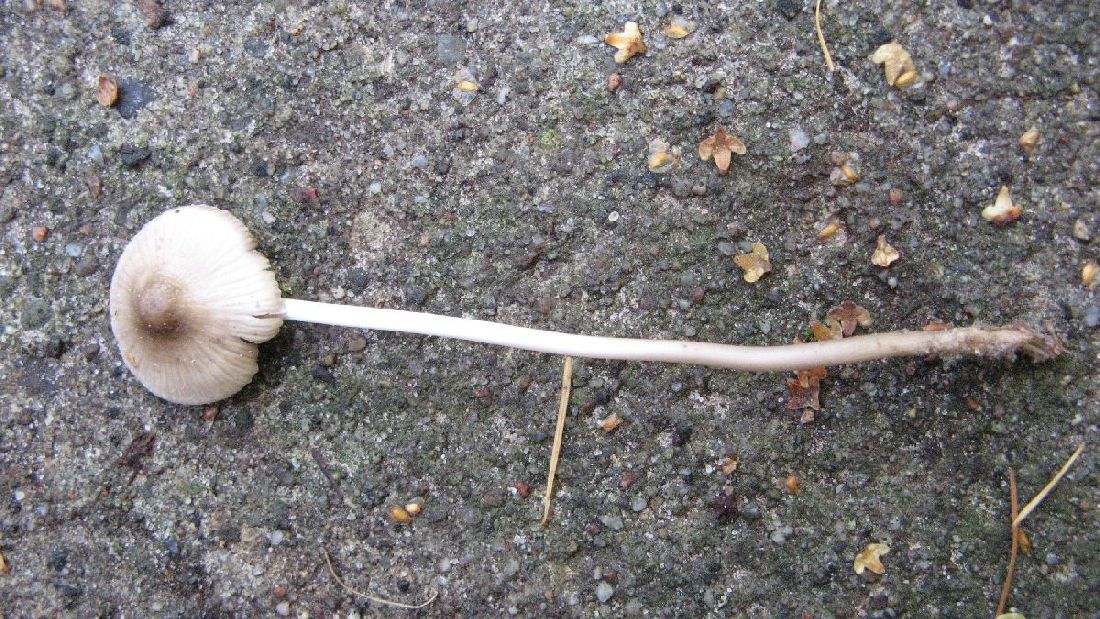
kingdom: Fungi
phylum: Basidiomycota
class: Agaricomycetes
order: Agaricales
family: Mycenaceae
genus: Mycena
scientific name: Mycena vitilis
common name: blankstokket huesvamp
